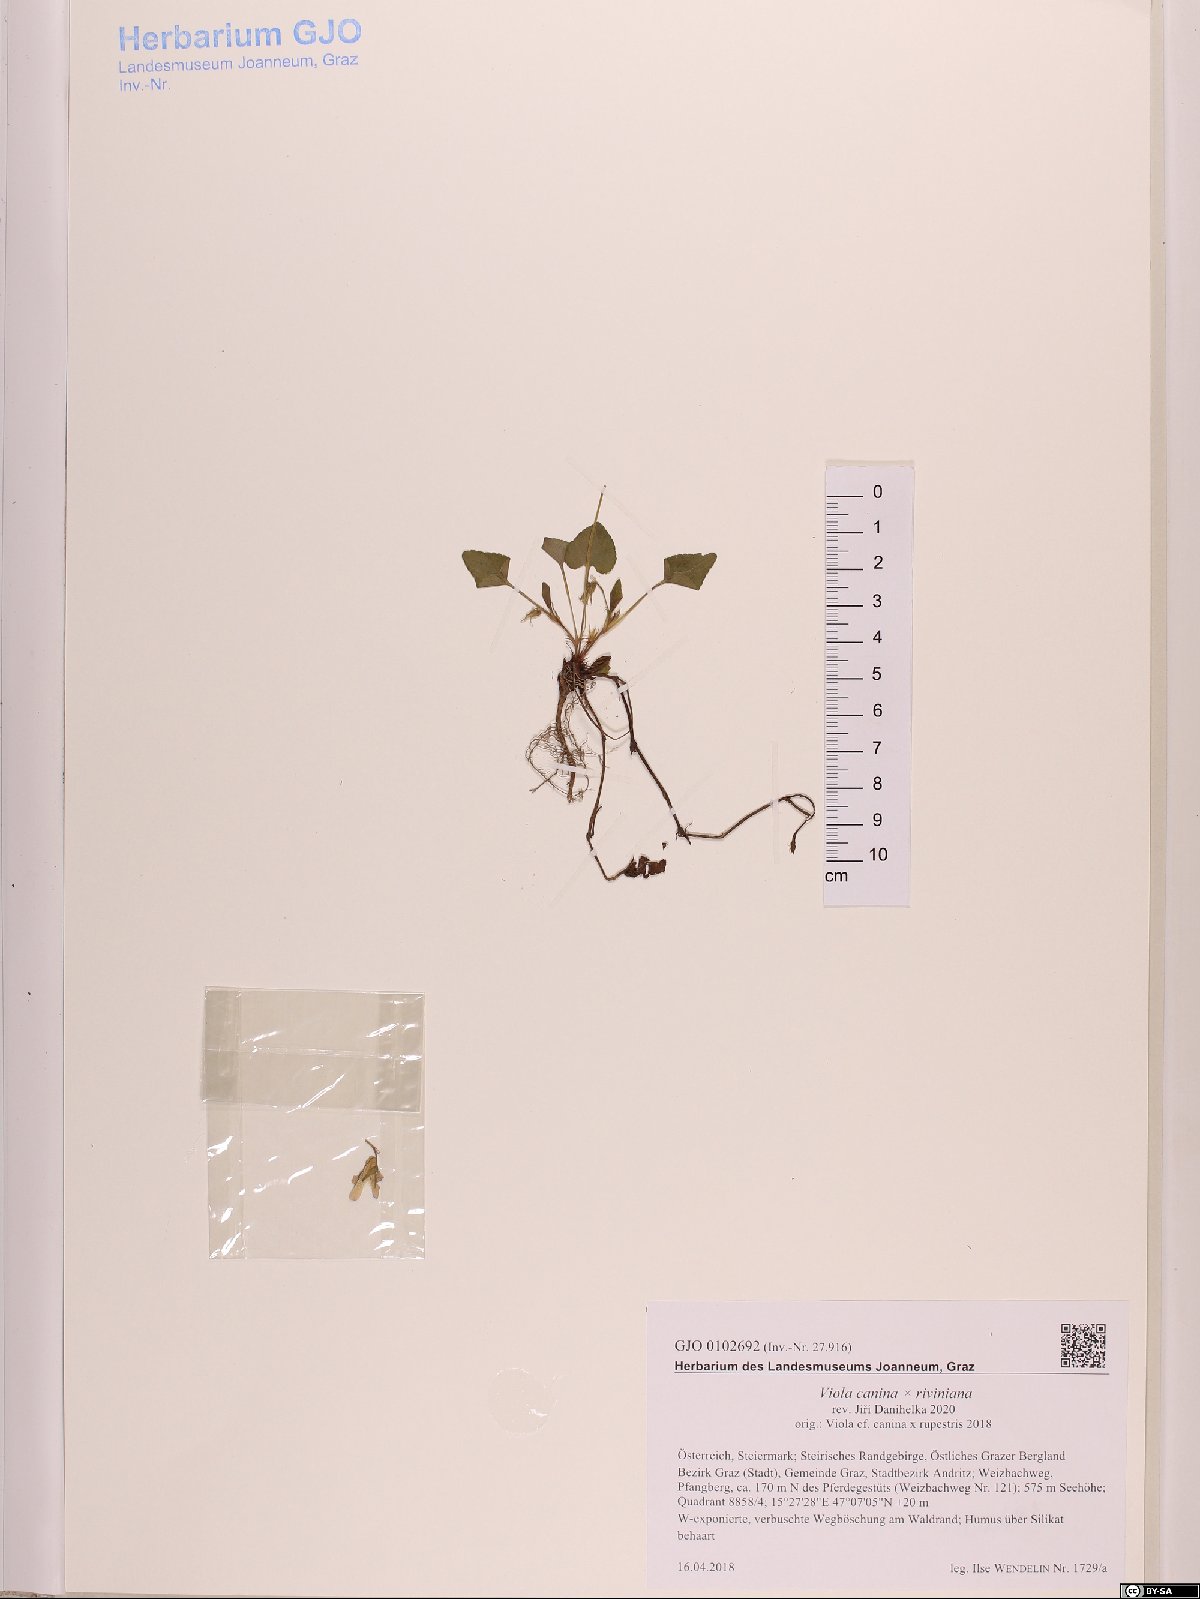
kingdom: Plantae
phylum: Tracheophyta
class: Magnoliopsida
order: Malpighiales
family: Violaceae
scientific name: Violaceae
